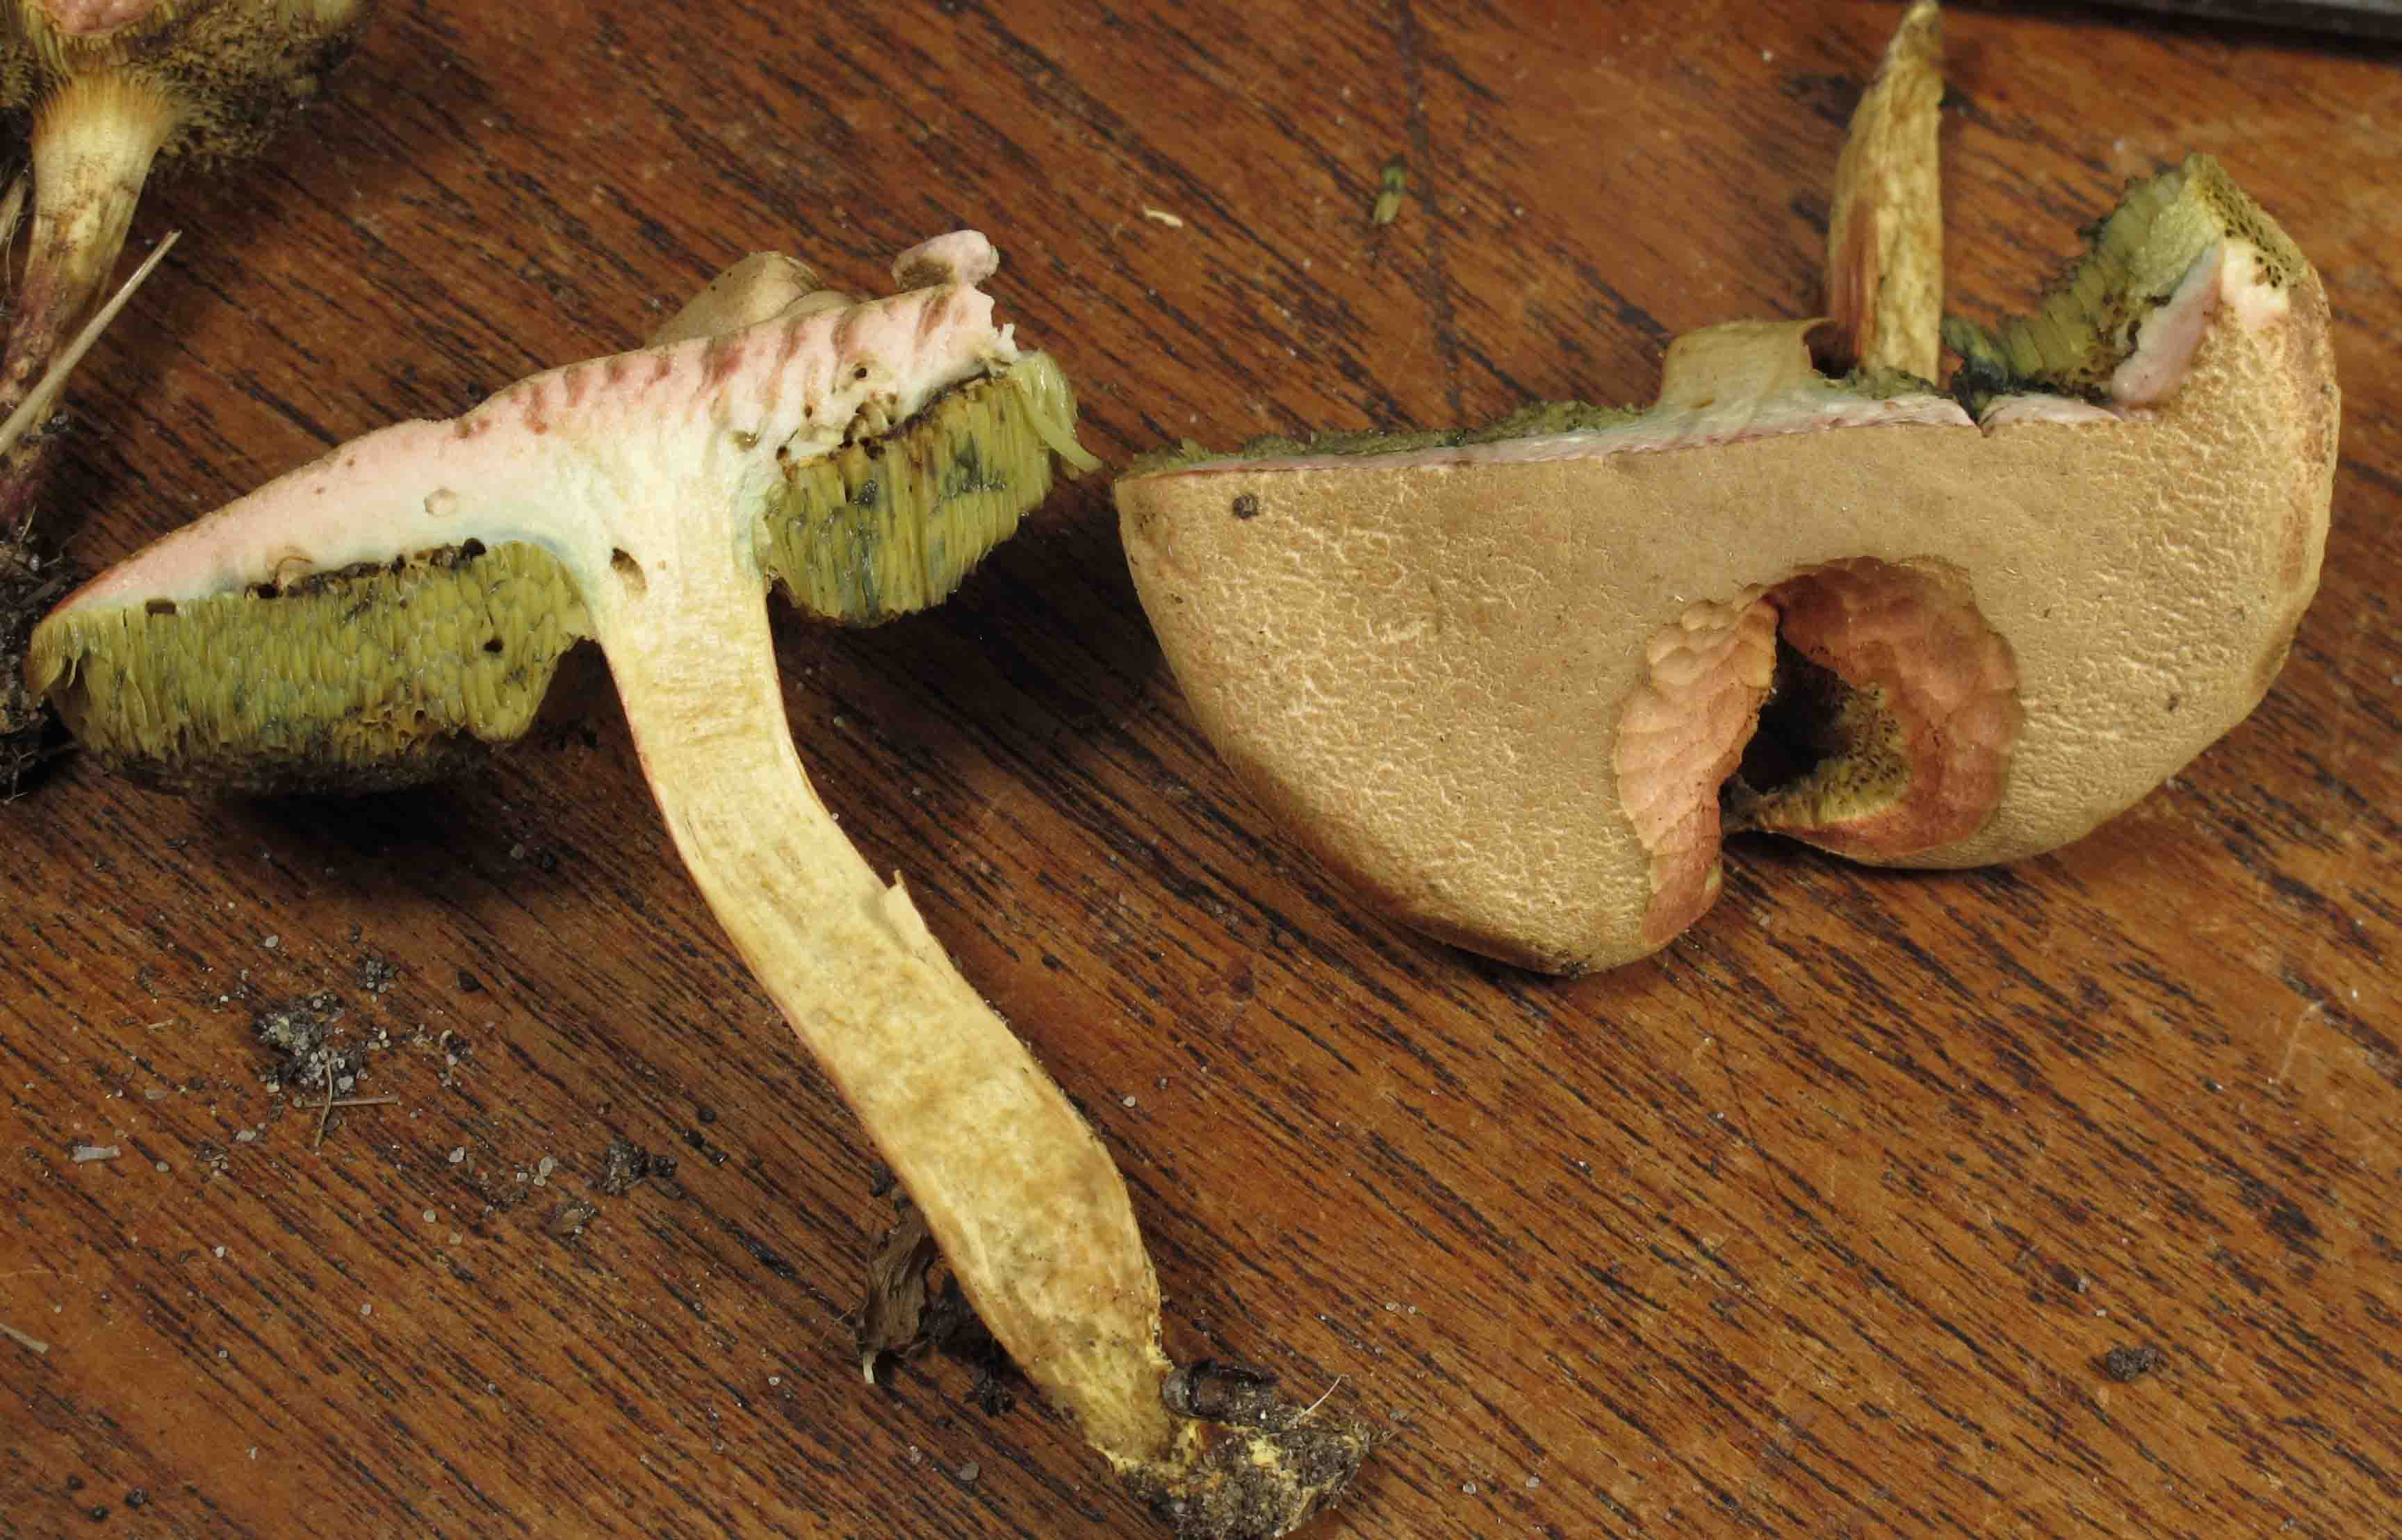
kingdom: Fungi
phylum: Basidiomycota
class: Agaricomycetes
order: Boletales
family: Boletaceae
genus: Hortiboletus
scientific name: Hortiboletus bubalinus
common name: aurora-rørhat
